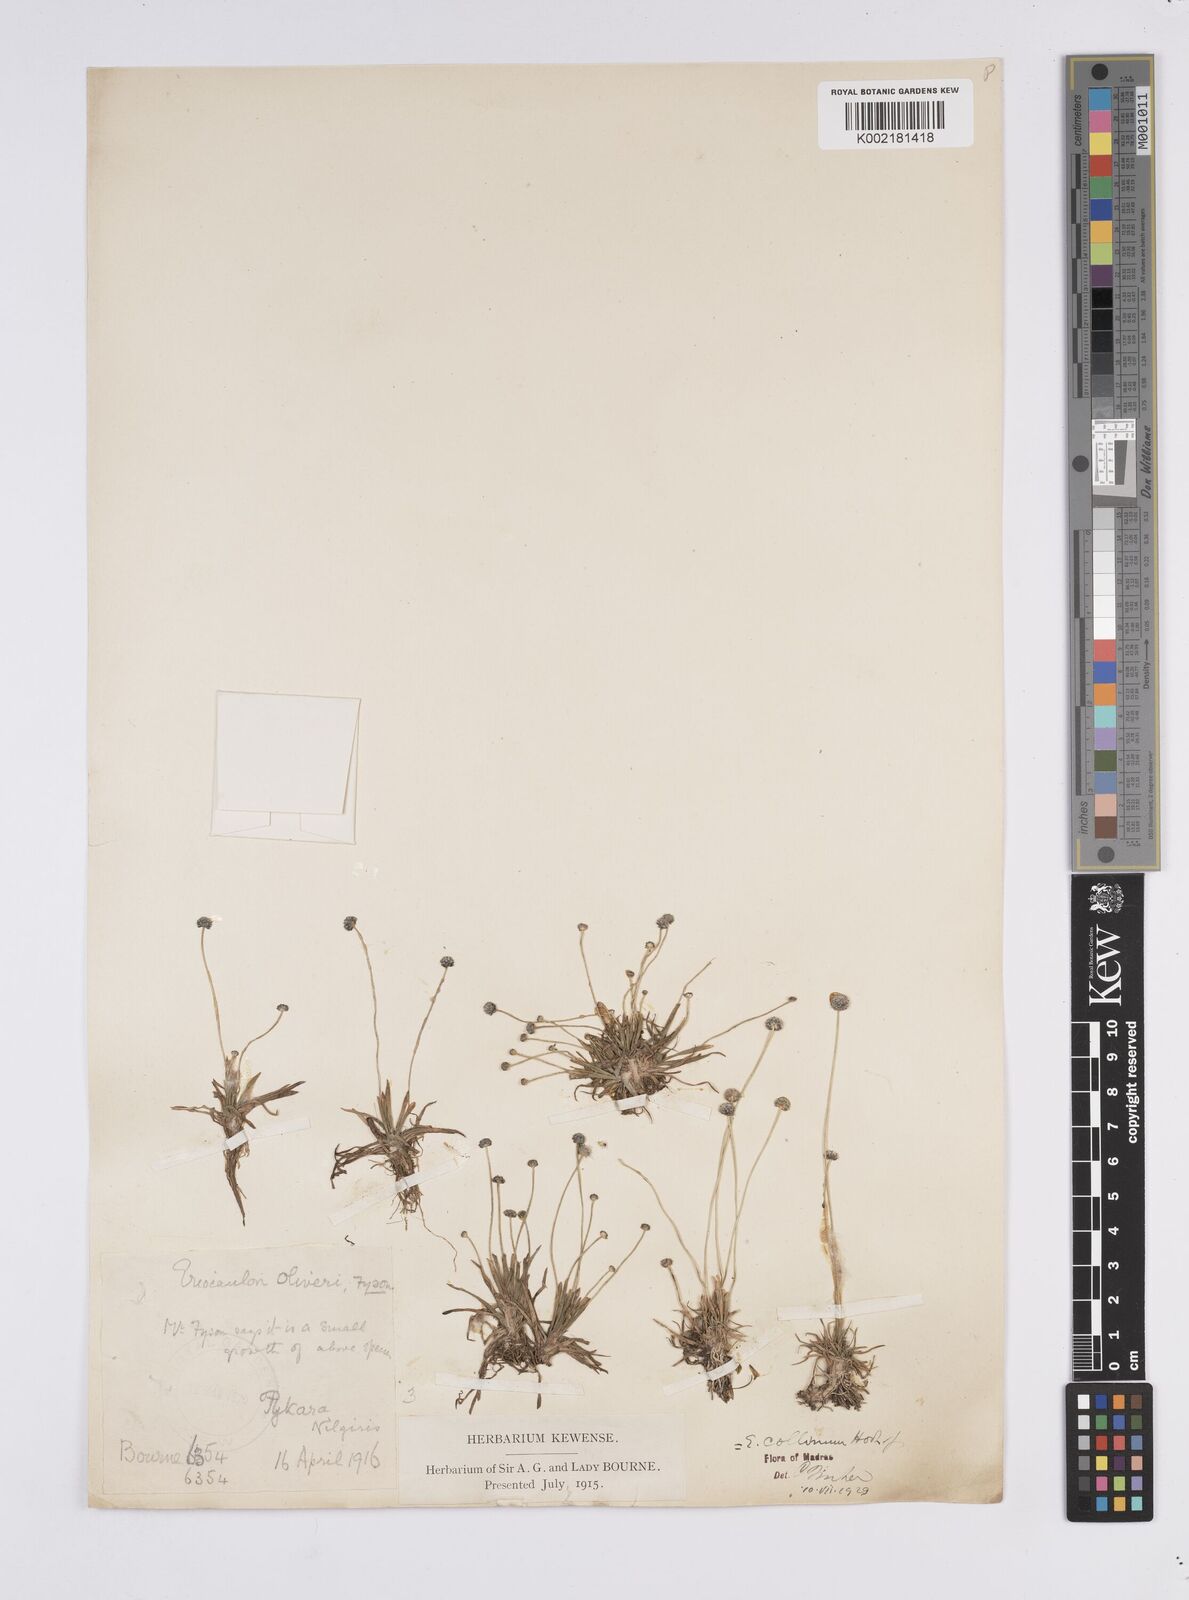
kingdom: Plantae
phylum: Tracheophyta
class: Liliopsida
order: Poales
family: Eriocaulaceae
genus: Eriocaulon
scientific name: Eriocaulon odoratum
